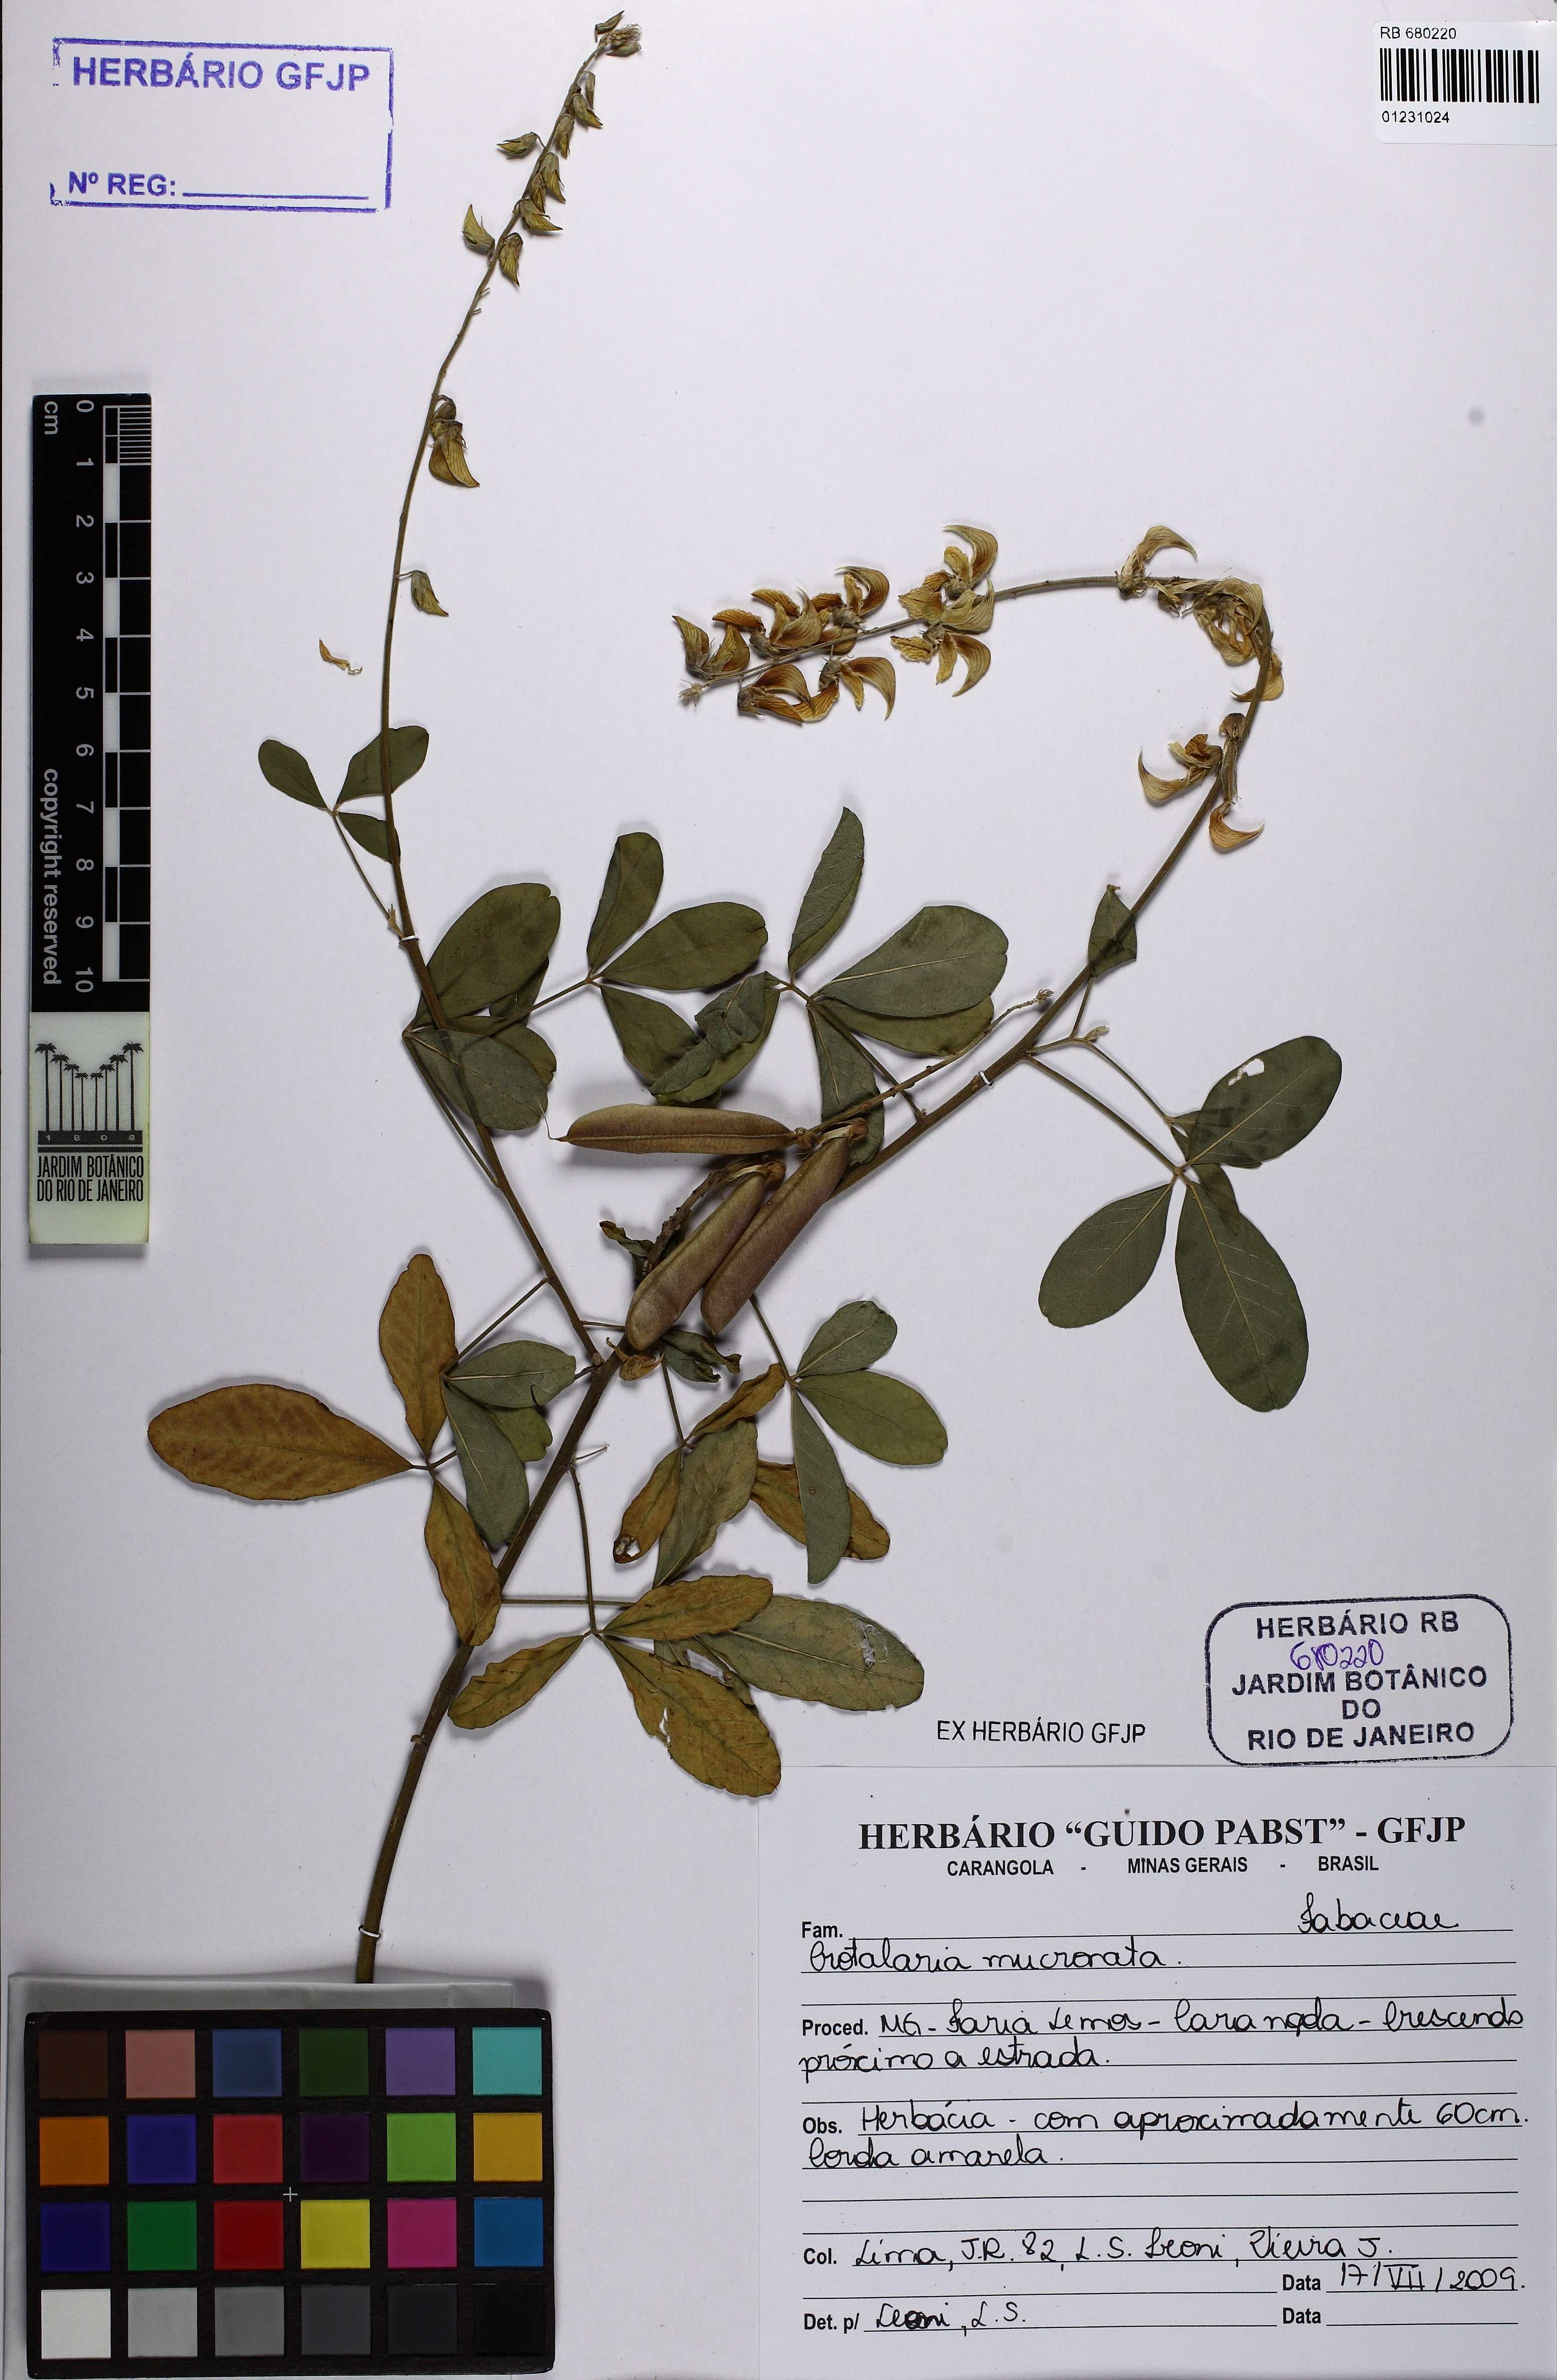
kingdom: Plantae
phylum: Tracheophyta
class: Magnoliopsida
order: Fabales
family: Fabaceae
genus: Crotalaria
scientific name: Crotalaria pallida
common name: Smooth rattlebox
